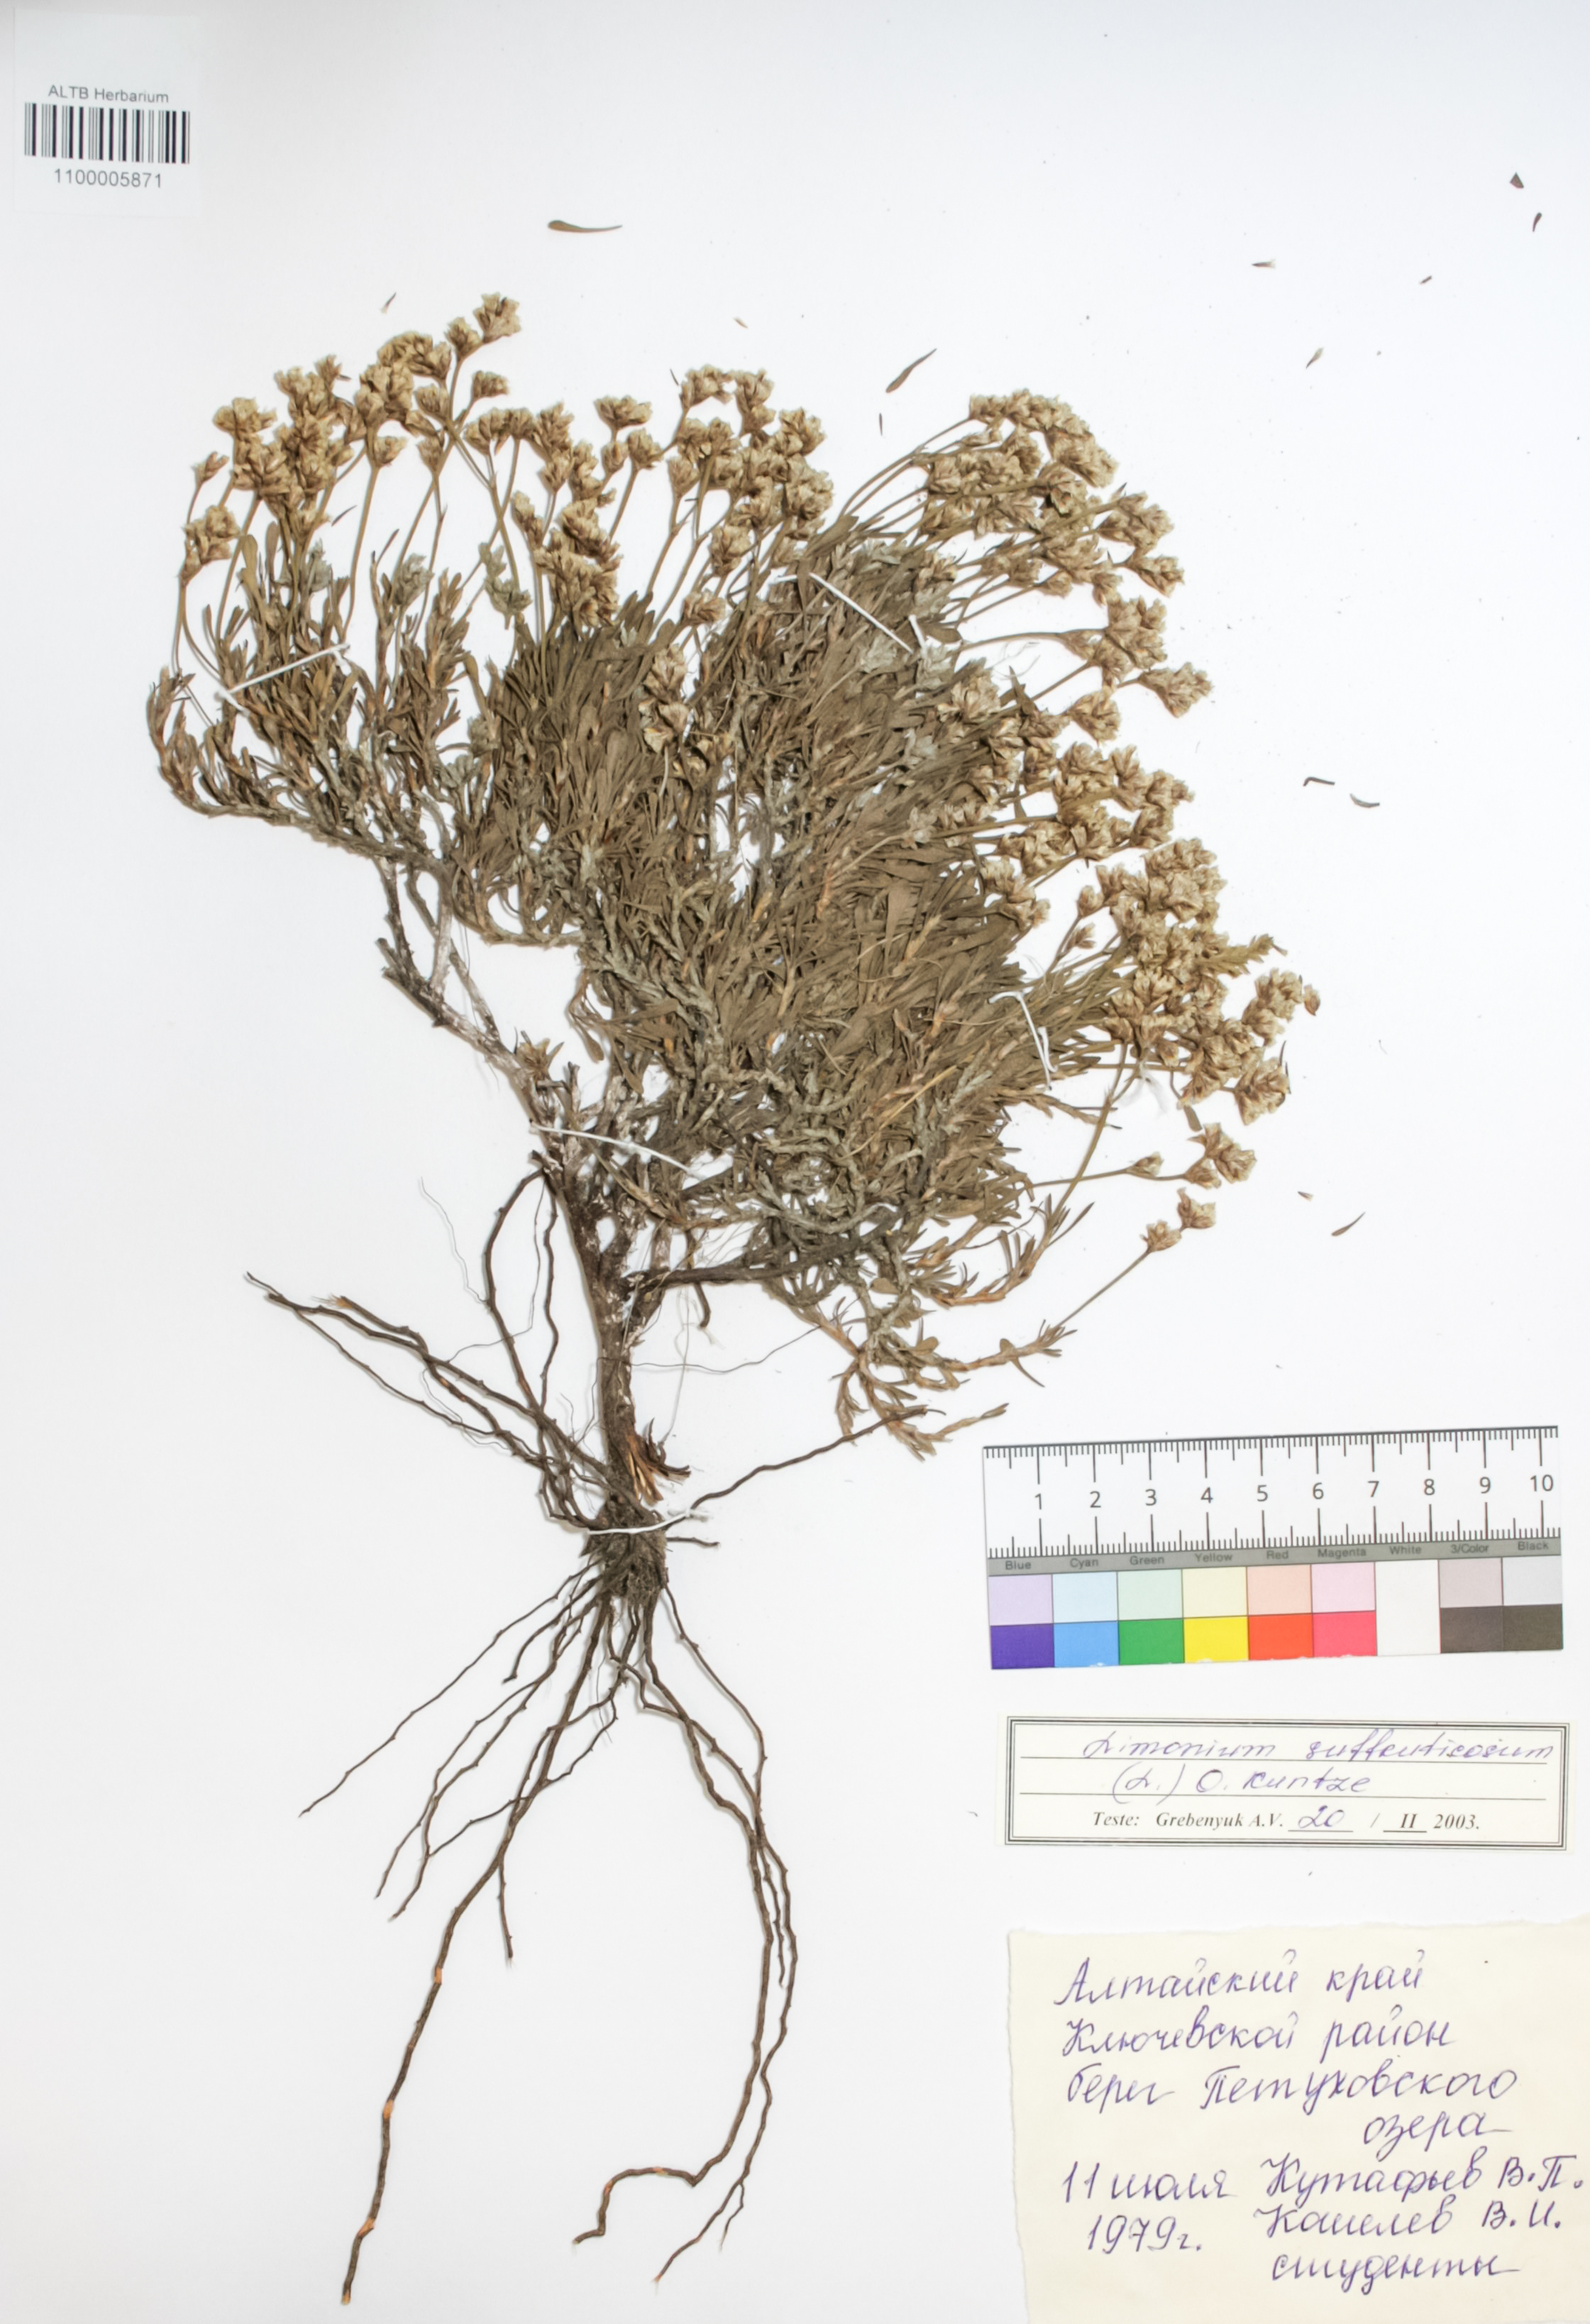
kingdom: Plantae
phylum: Tracheophyta
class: Magnoliopsida
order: Caryophyllales
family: Plumbaginaceae
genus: Limonium
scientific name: Limonium suffruticosum
